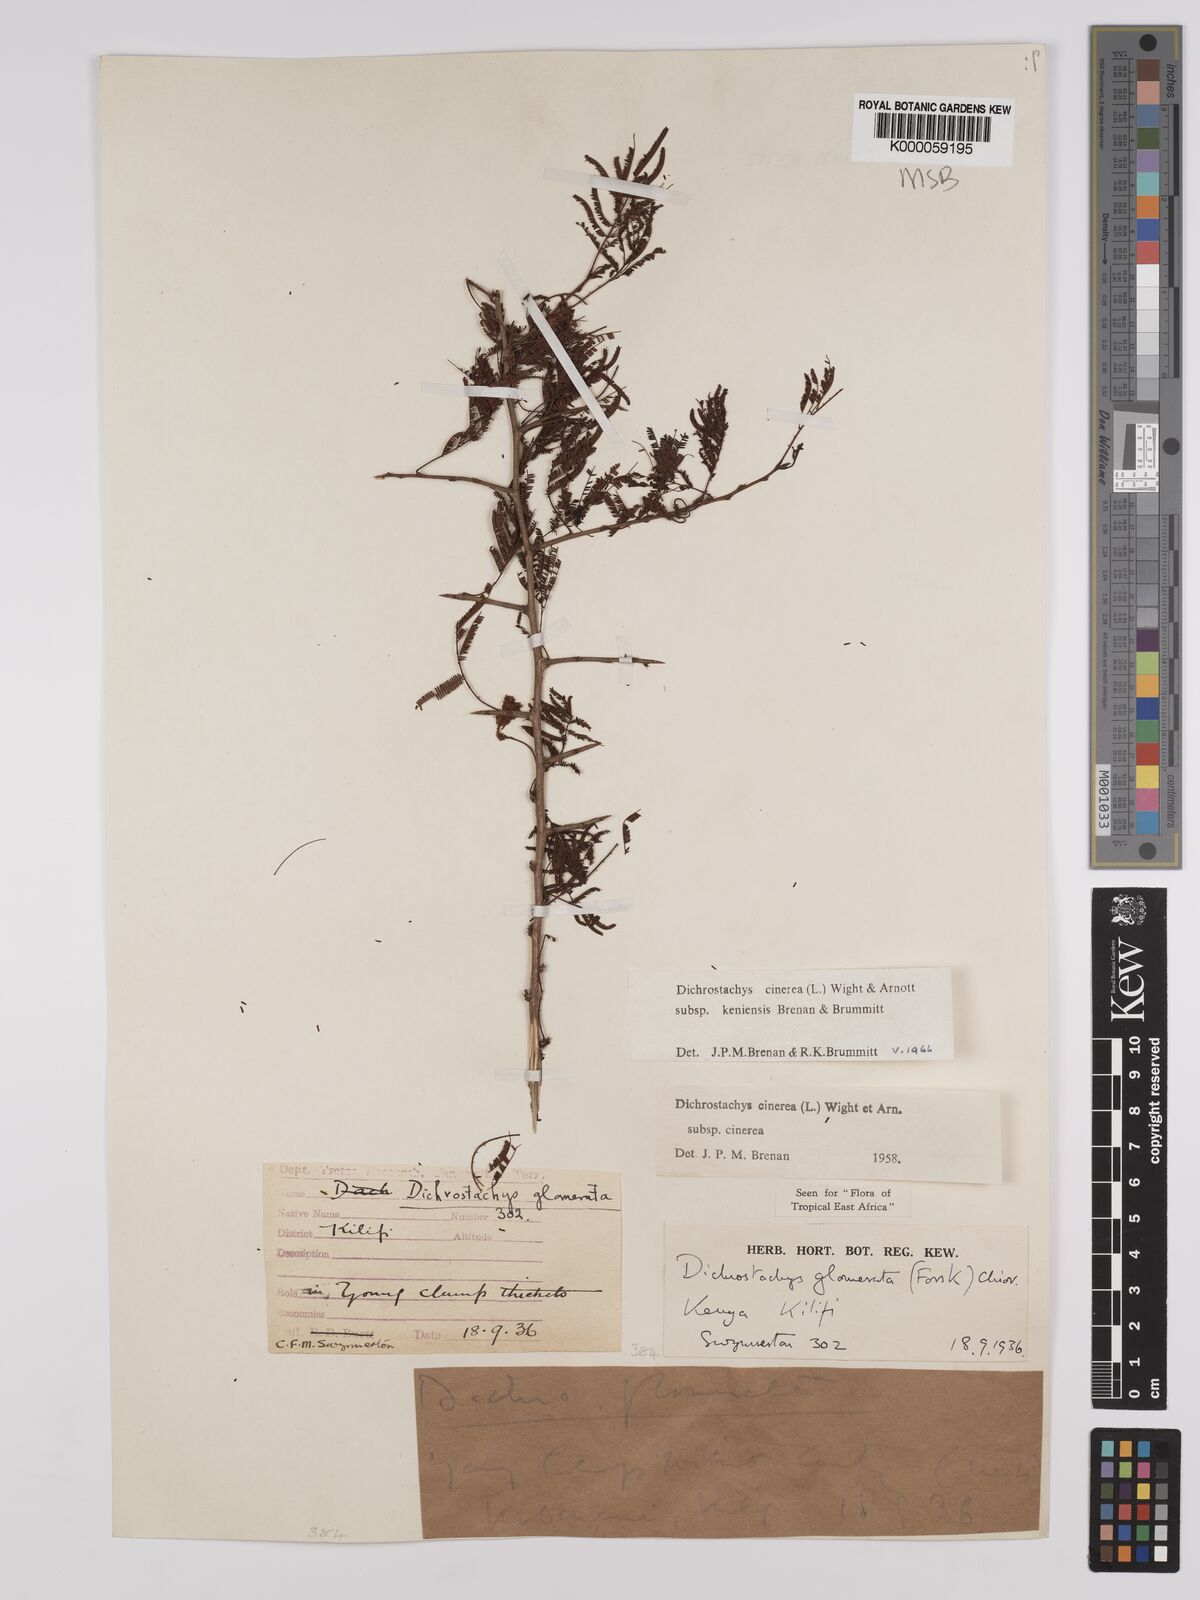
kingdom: Plantae
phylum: Tracheophyta
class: Magnoliopsida
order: Fabales
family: Fabaceae
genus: Dichrostachys
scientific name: Dichrostachys cinerea
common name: Sicklebush
